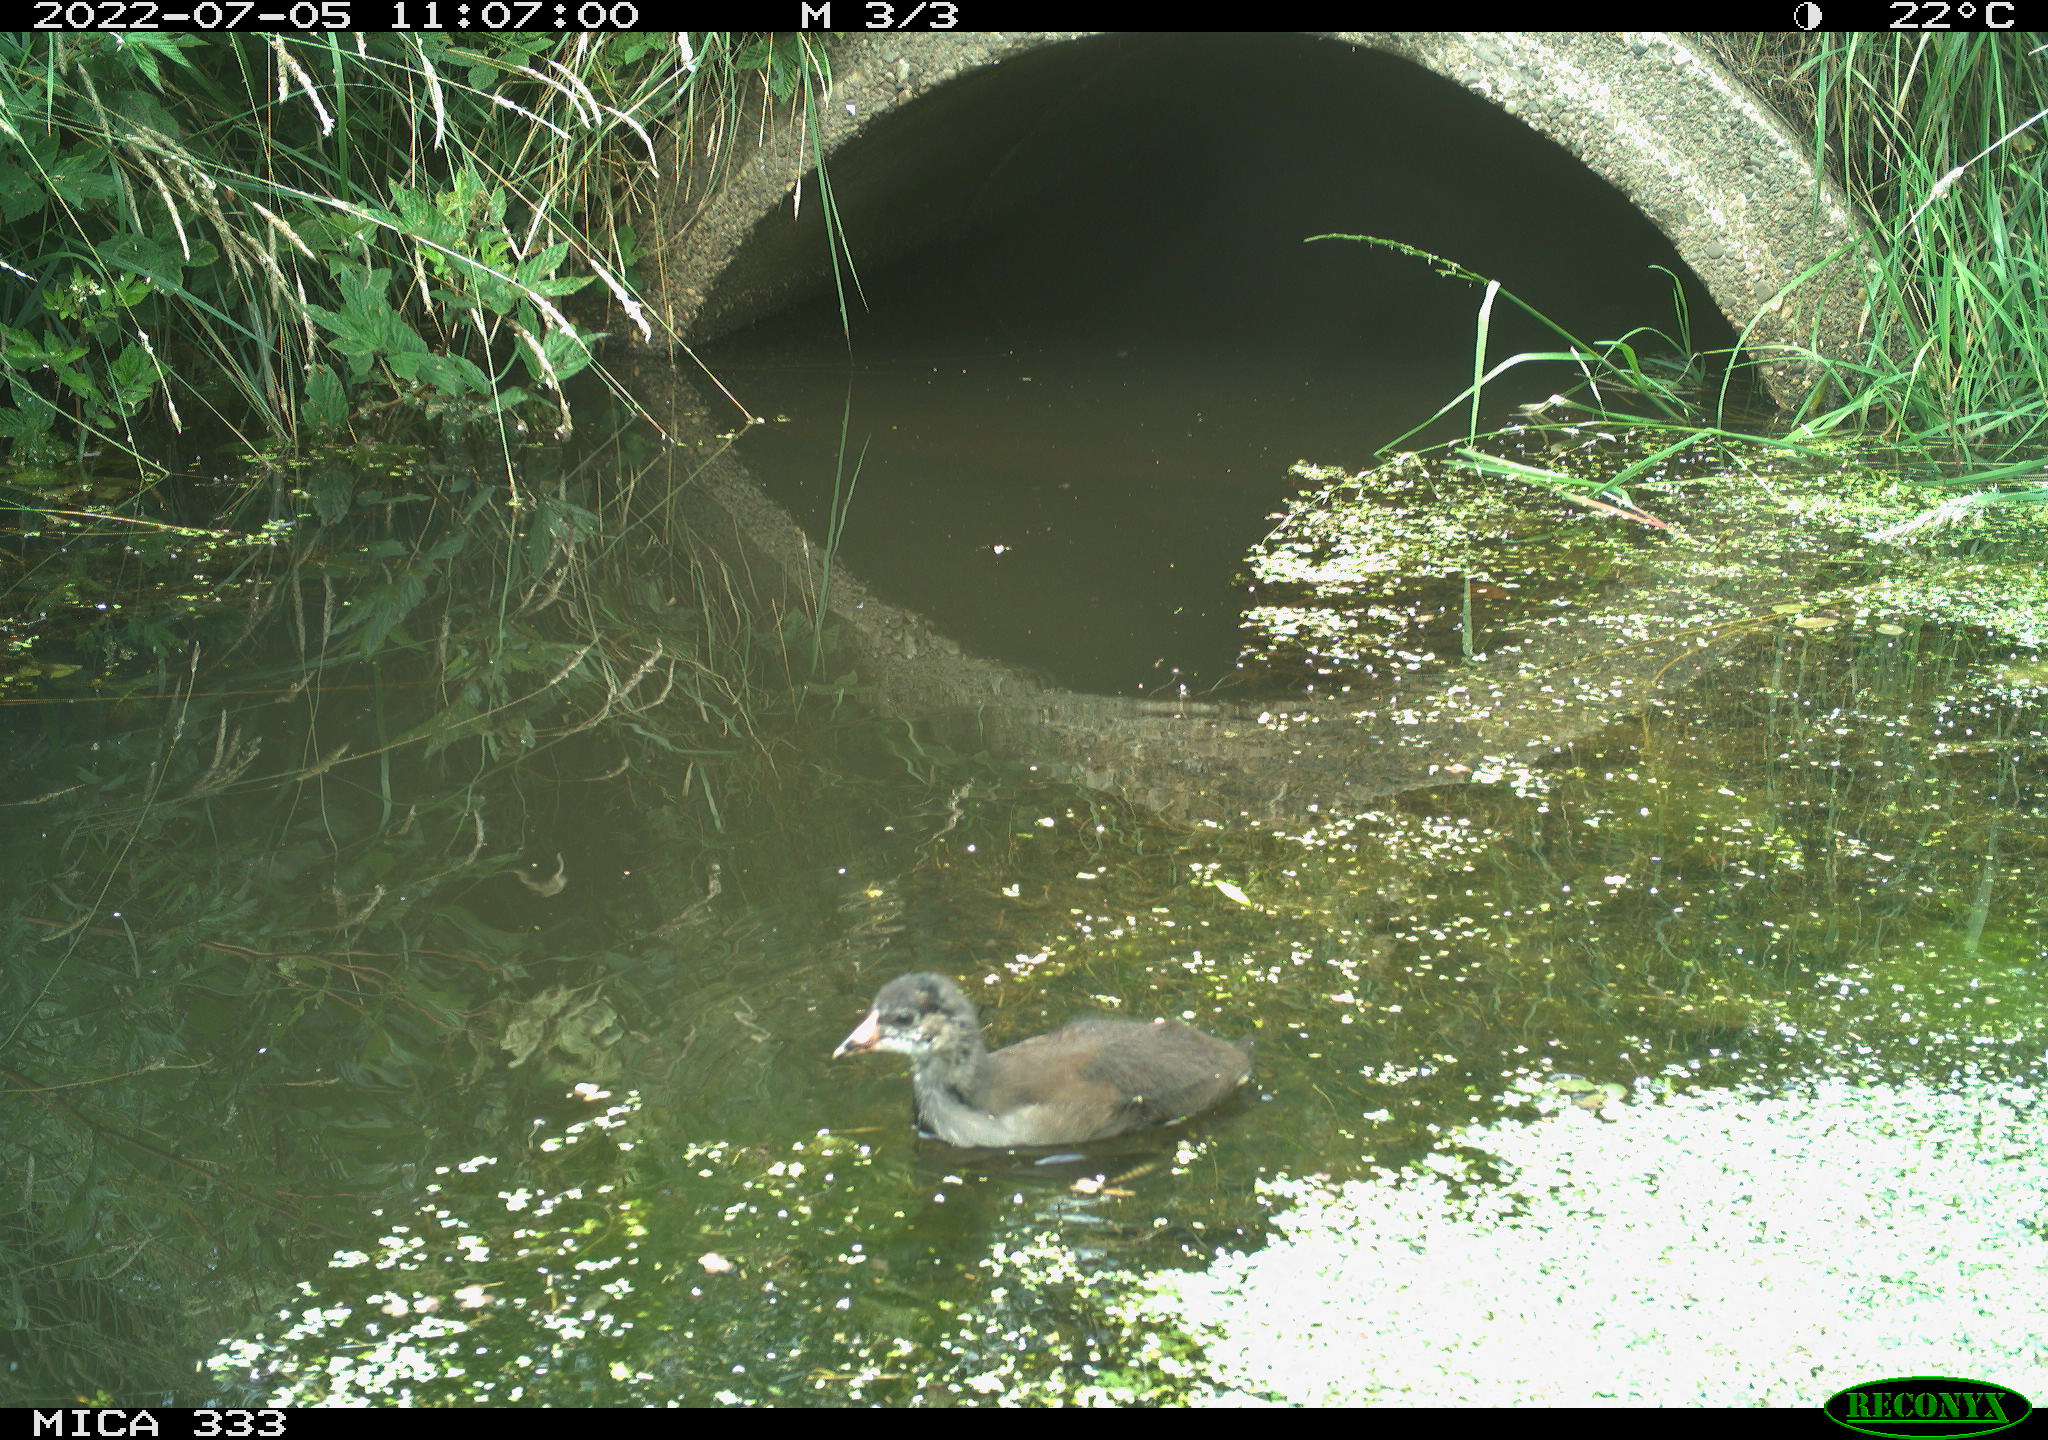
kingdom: Animalia
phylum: Chordata
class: Aves
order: Gruiformes
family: Rallidae
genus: Gallinula
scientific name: Gallinula chloropus
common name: Common moorhen
